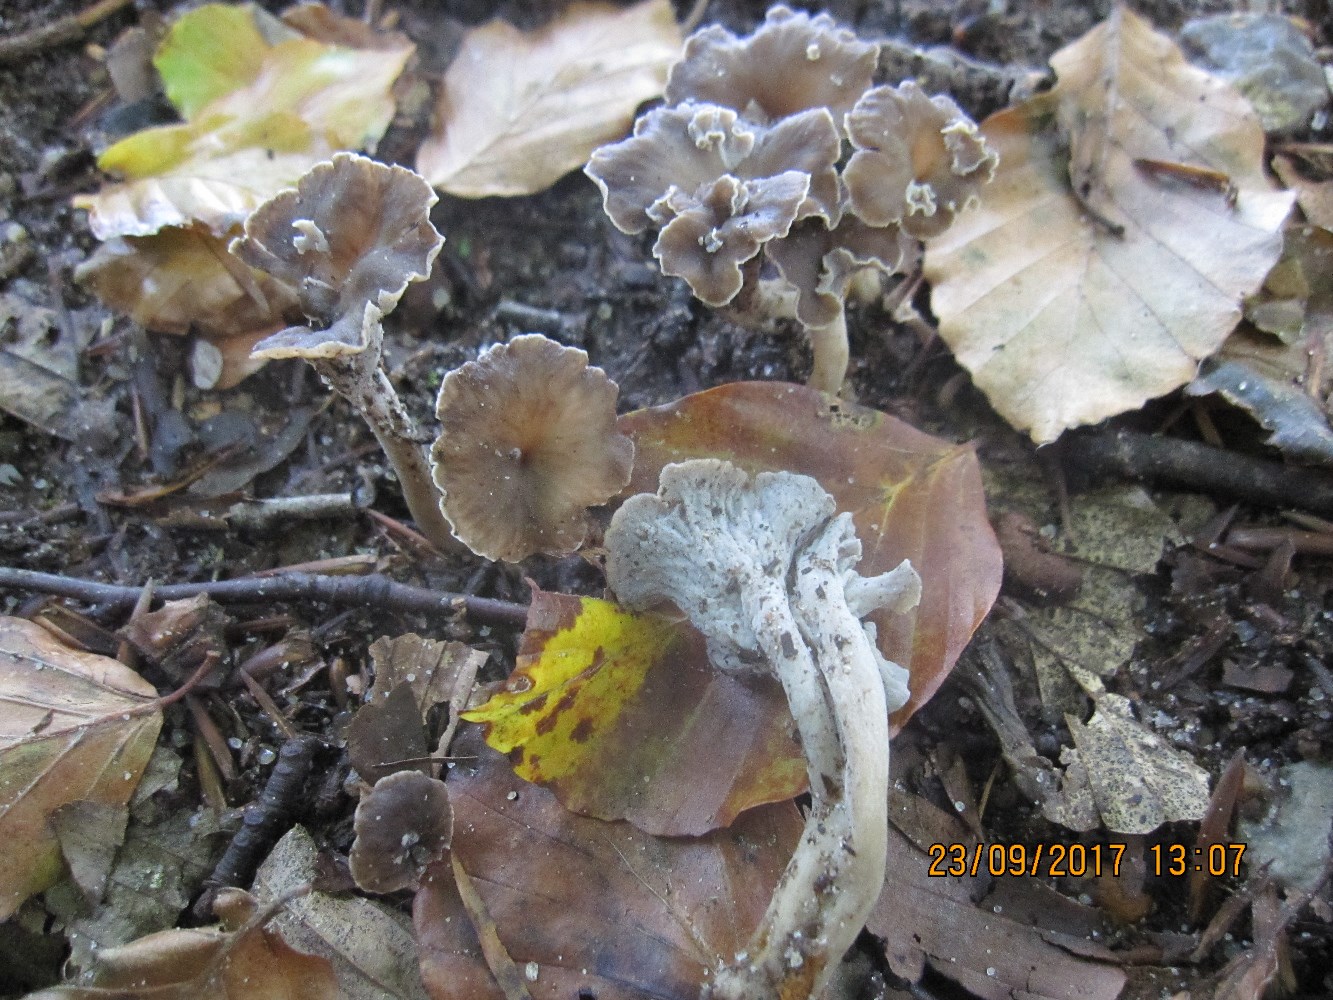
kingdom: Fungi
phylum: Basidiomycota
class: Agaricomycetes
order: Cantharellales
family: Hydnaceae
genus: Craterellus
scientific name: Craterellus undulatus
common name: liden kantarel
